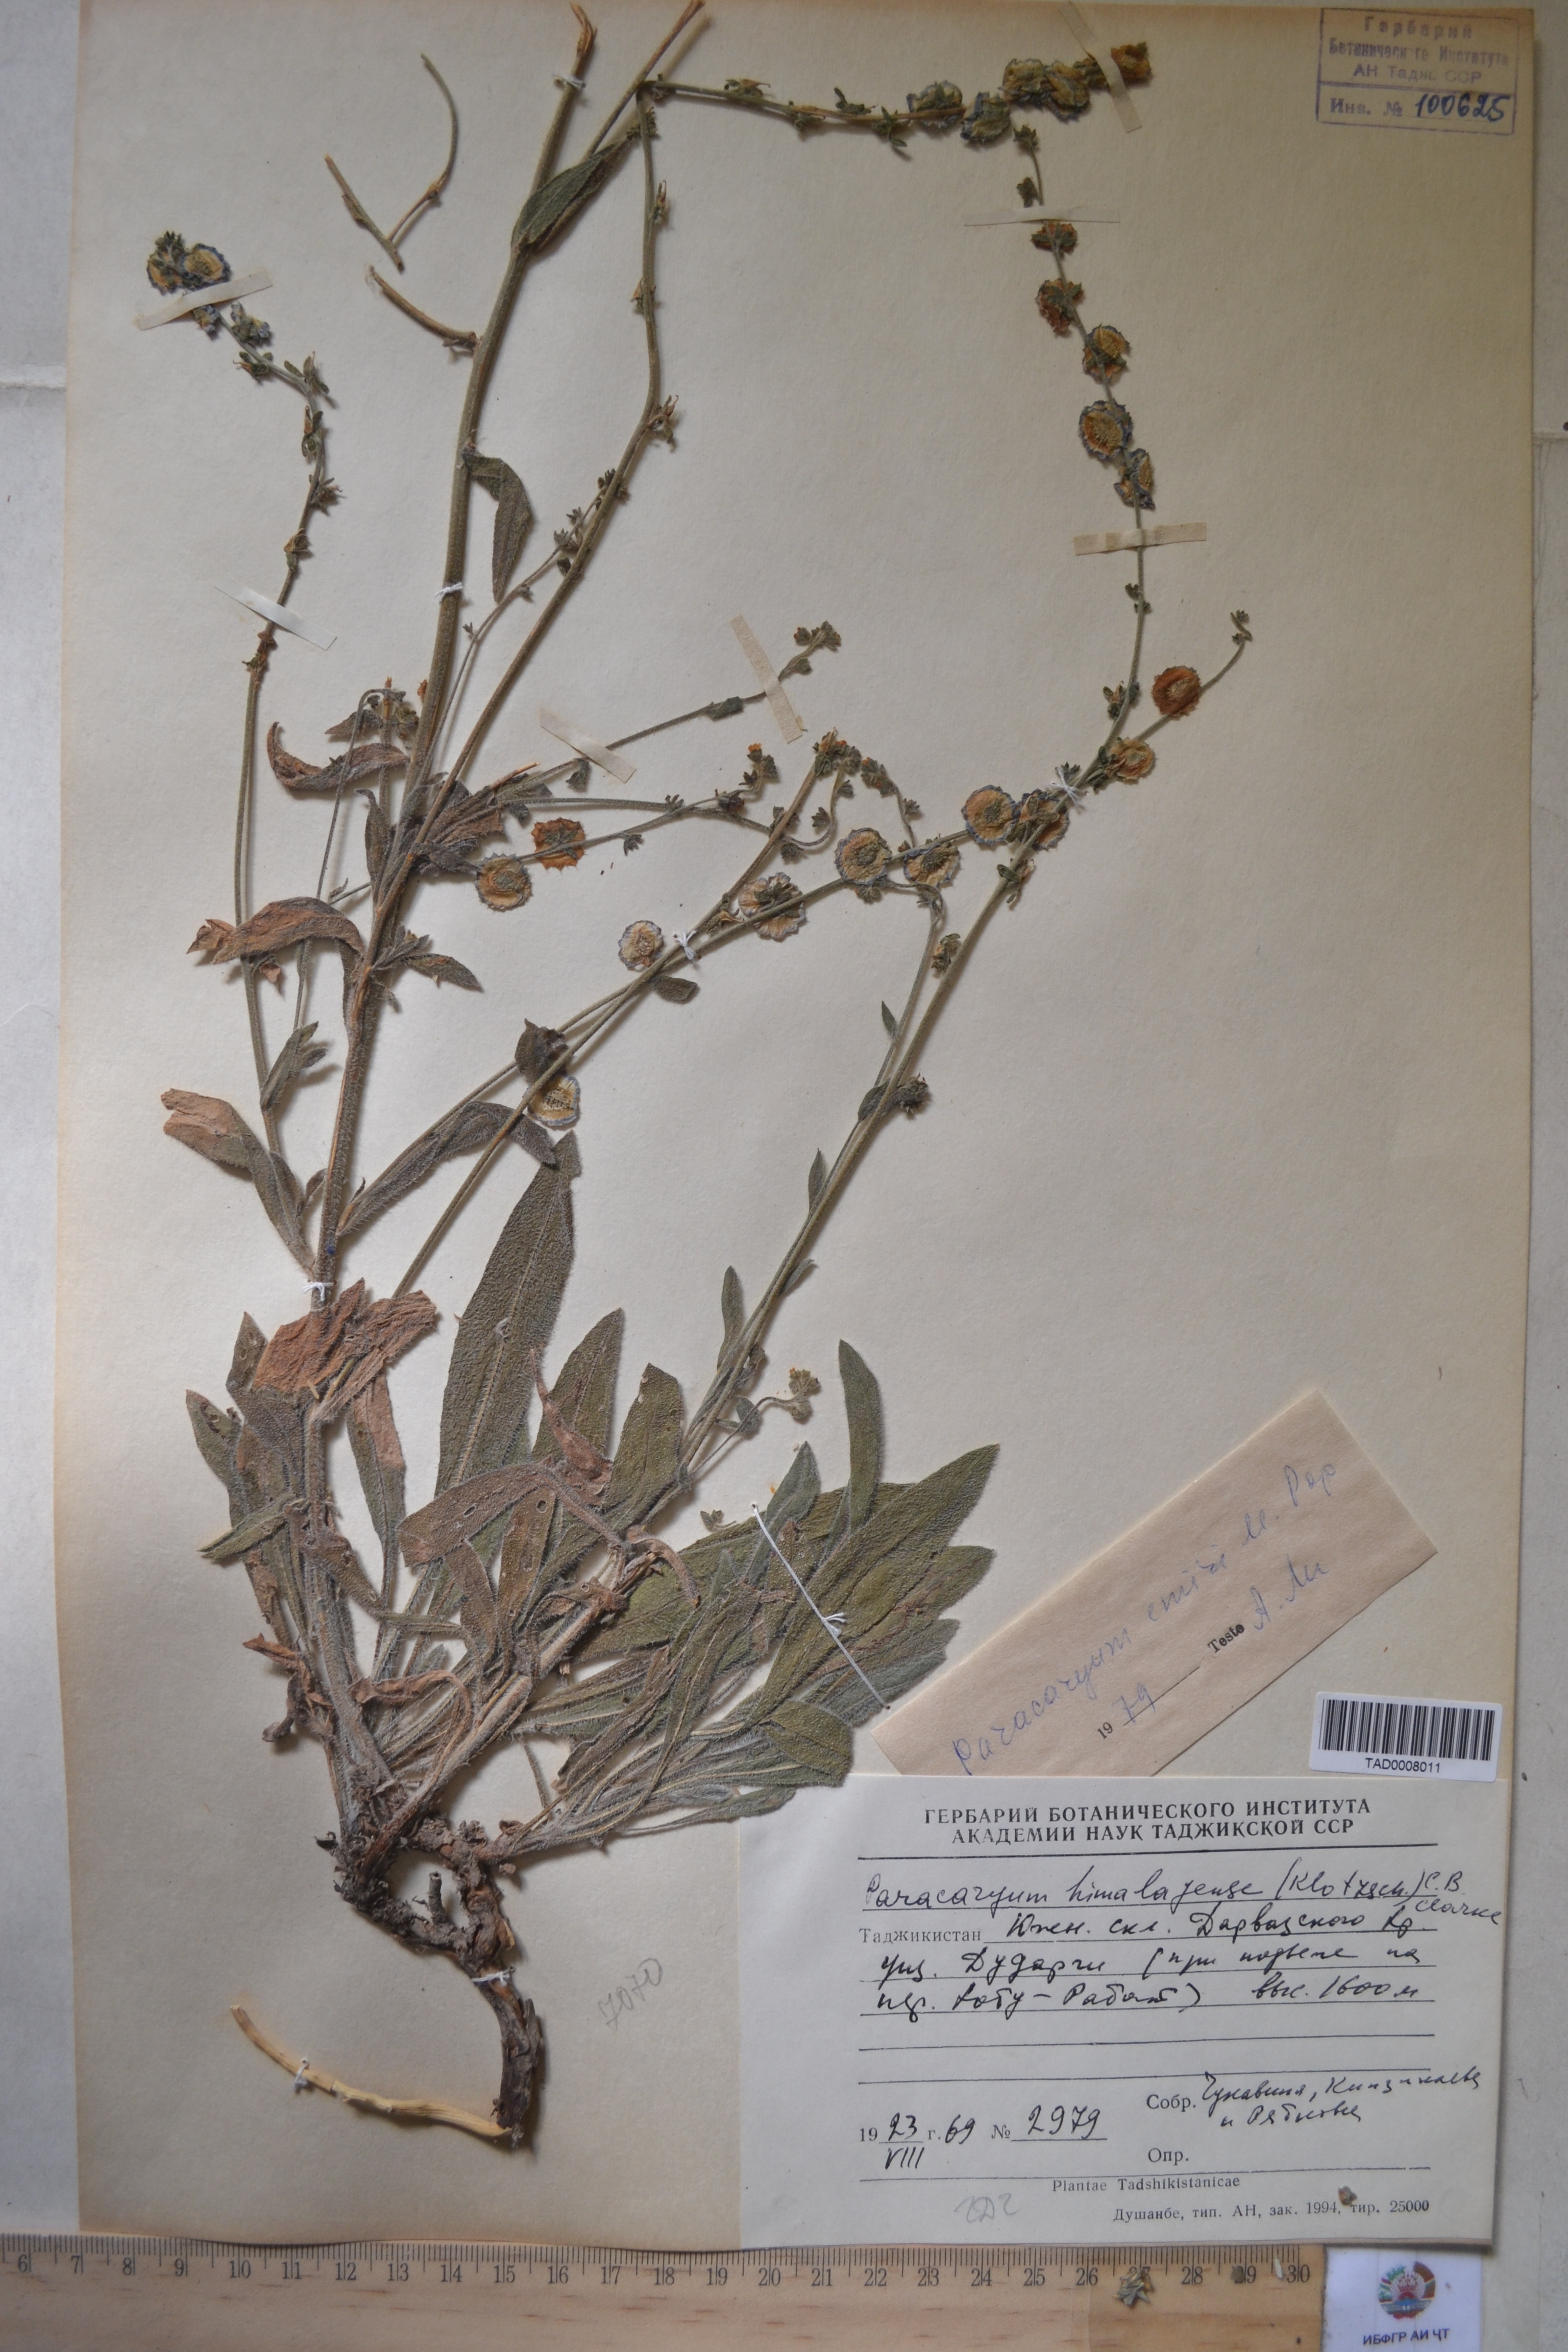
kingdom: Plantae
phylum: Tracheophyta
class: Magnoliopsida
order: Boraginales
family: Boraginaceae
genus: Paracaryum
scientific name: Paracaryum himalayense
